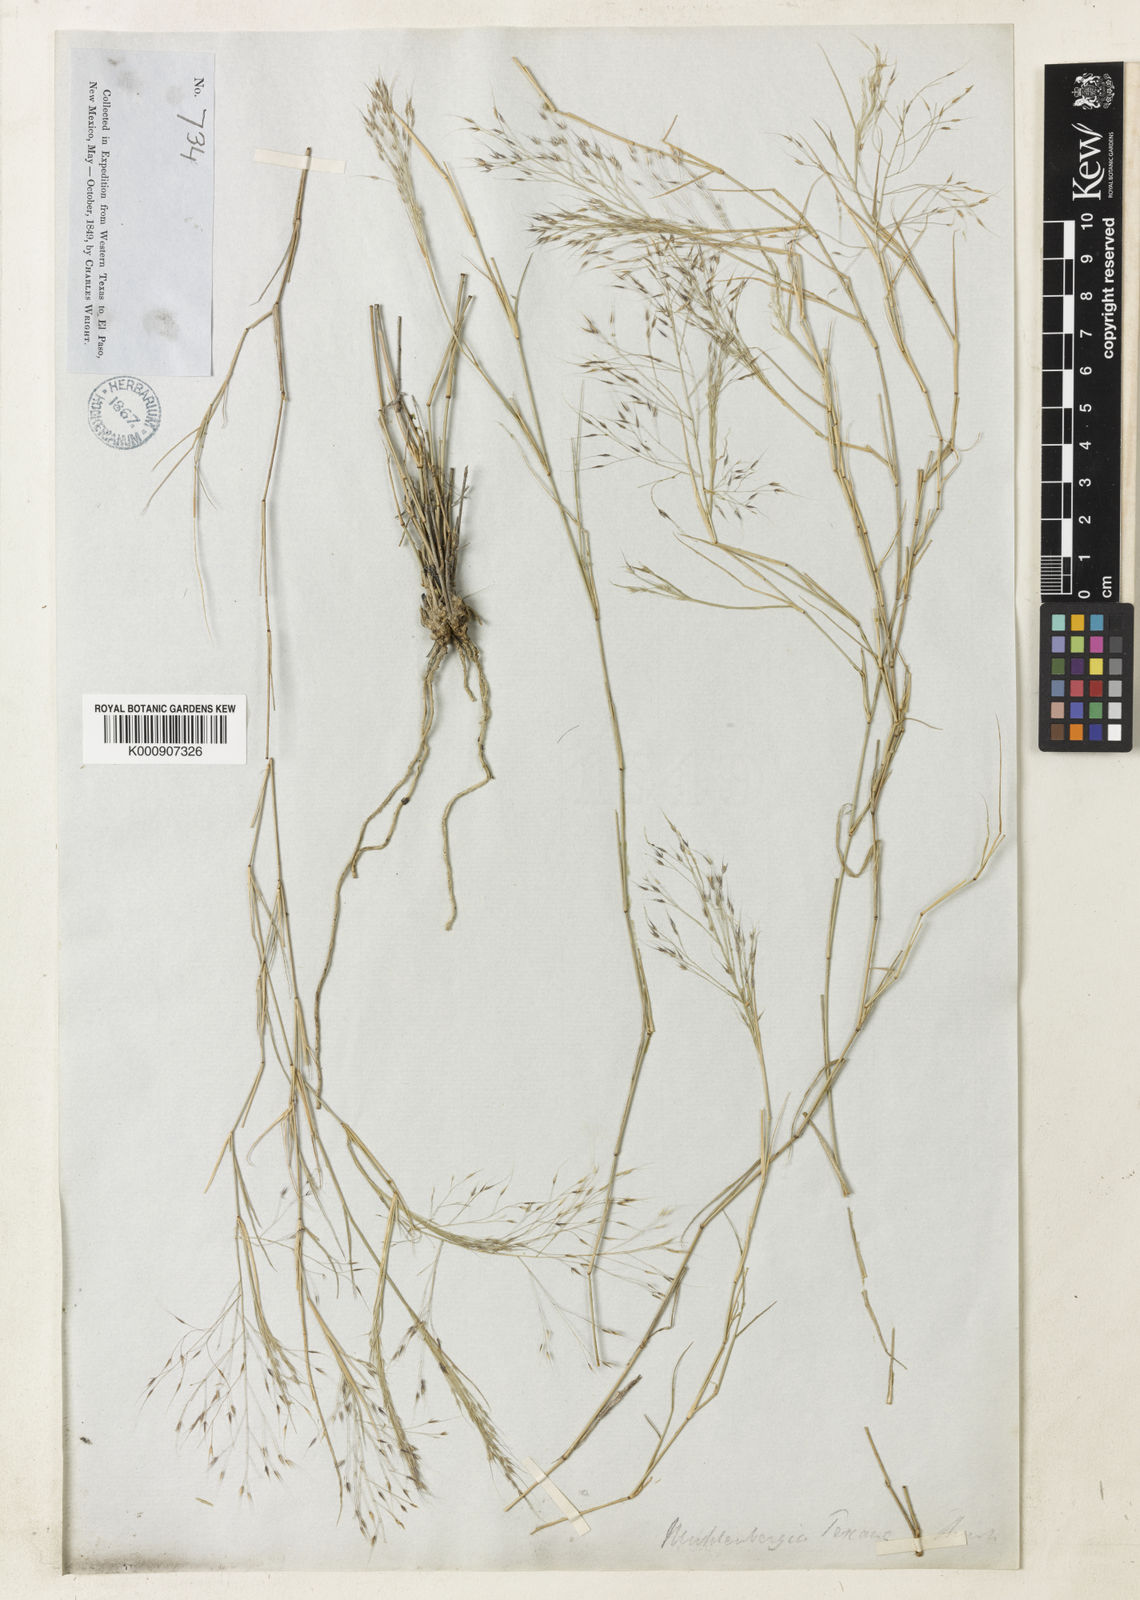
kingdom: Plantae
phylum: Tracheophyta
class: Liliopsida
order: Poales
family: Poaceae
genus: Muhlenbergia
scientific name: Muhlenbergia porteri
